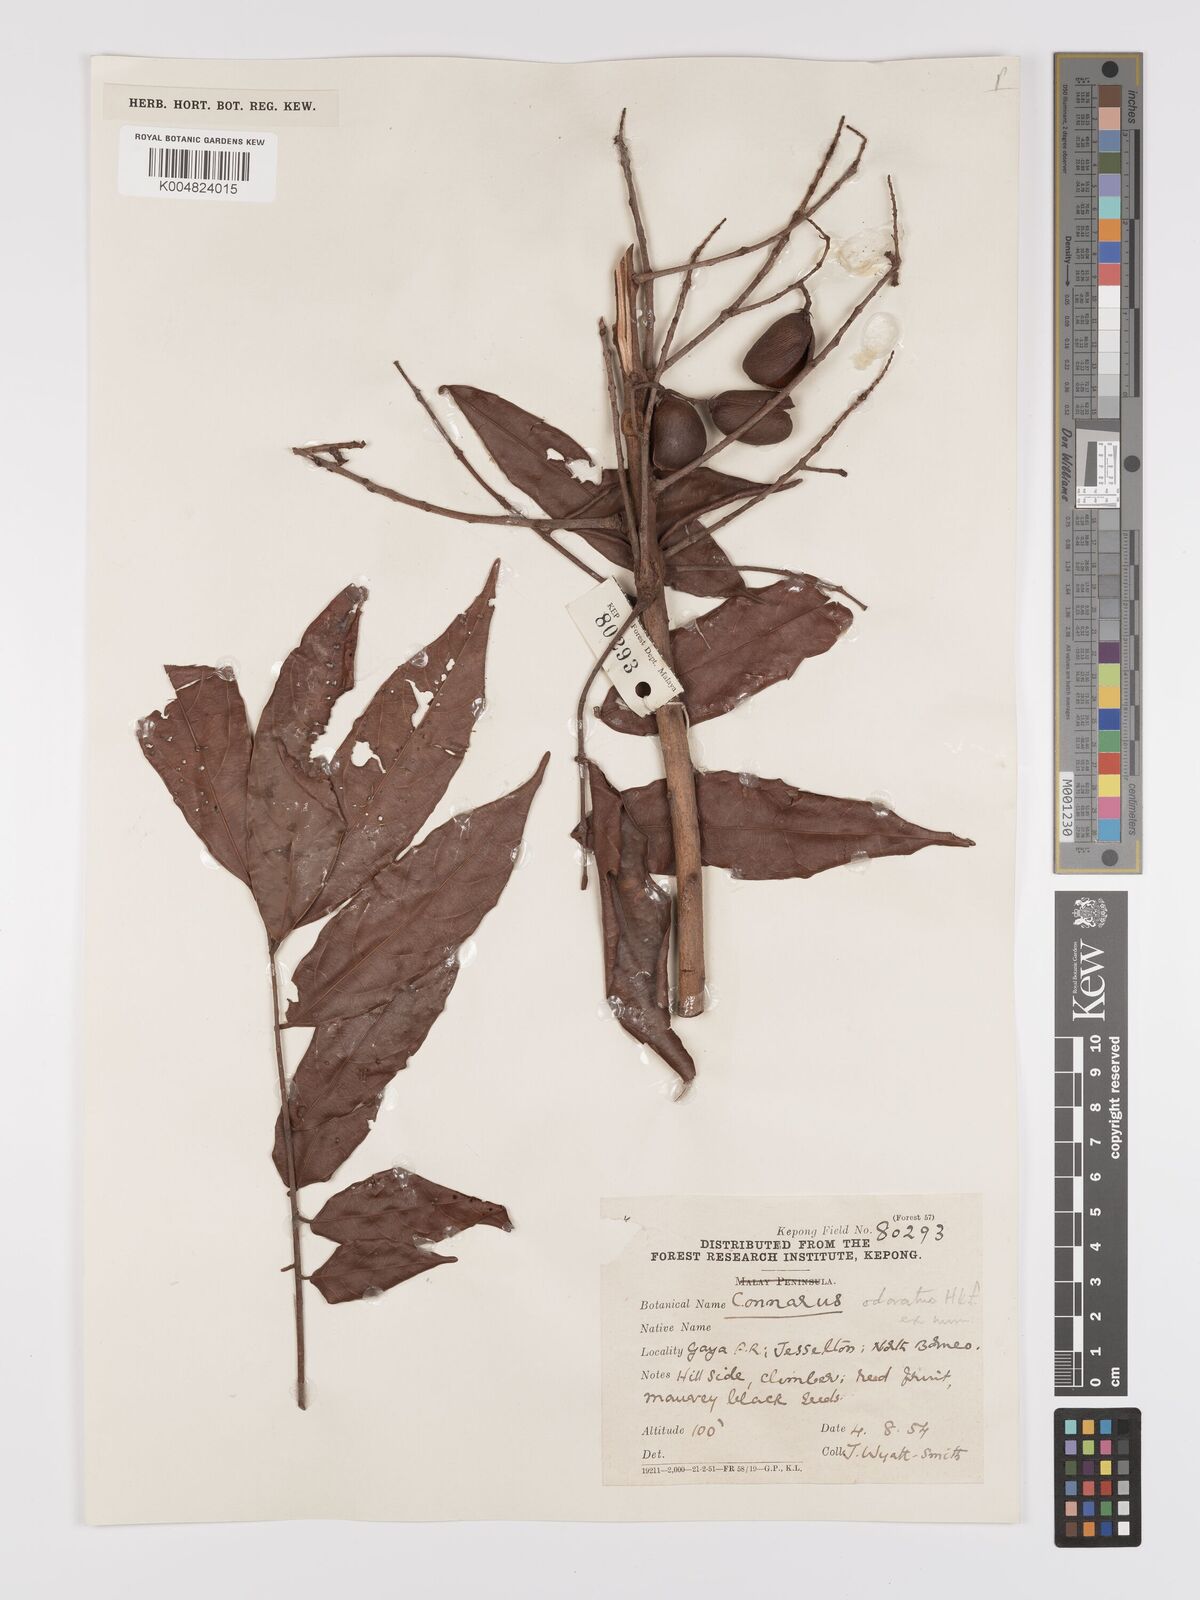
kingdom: Plantae
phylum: Tracheophyta
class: Magnoliopsida
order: Oxalidales
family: Connaraceae
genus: Connarus
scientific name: Connarus odoratus
